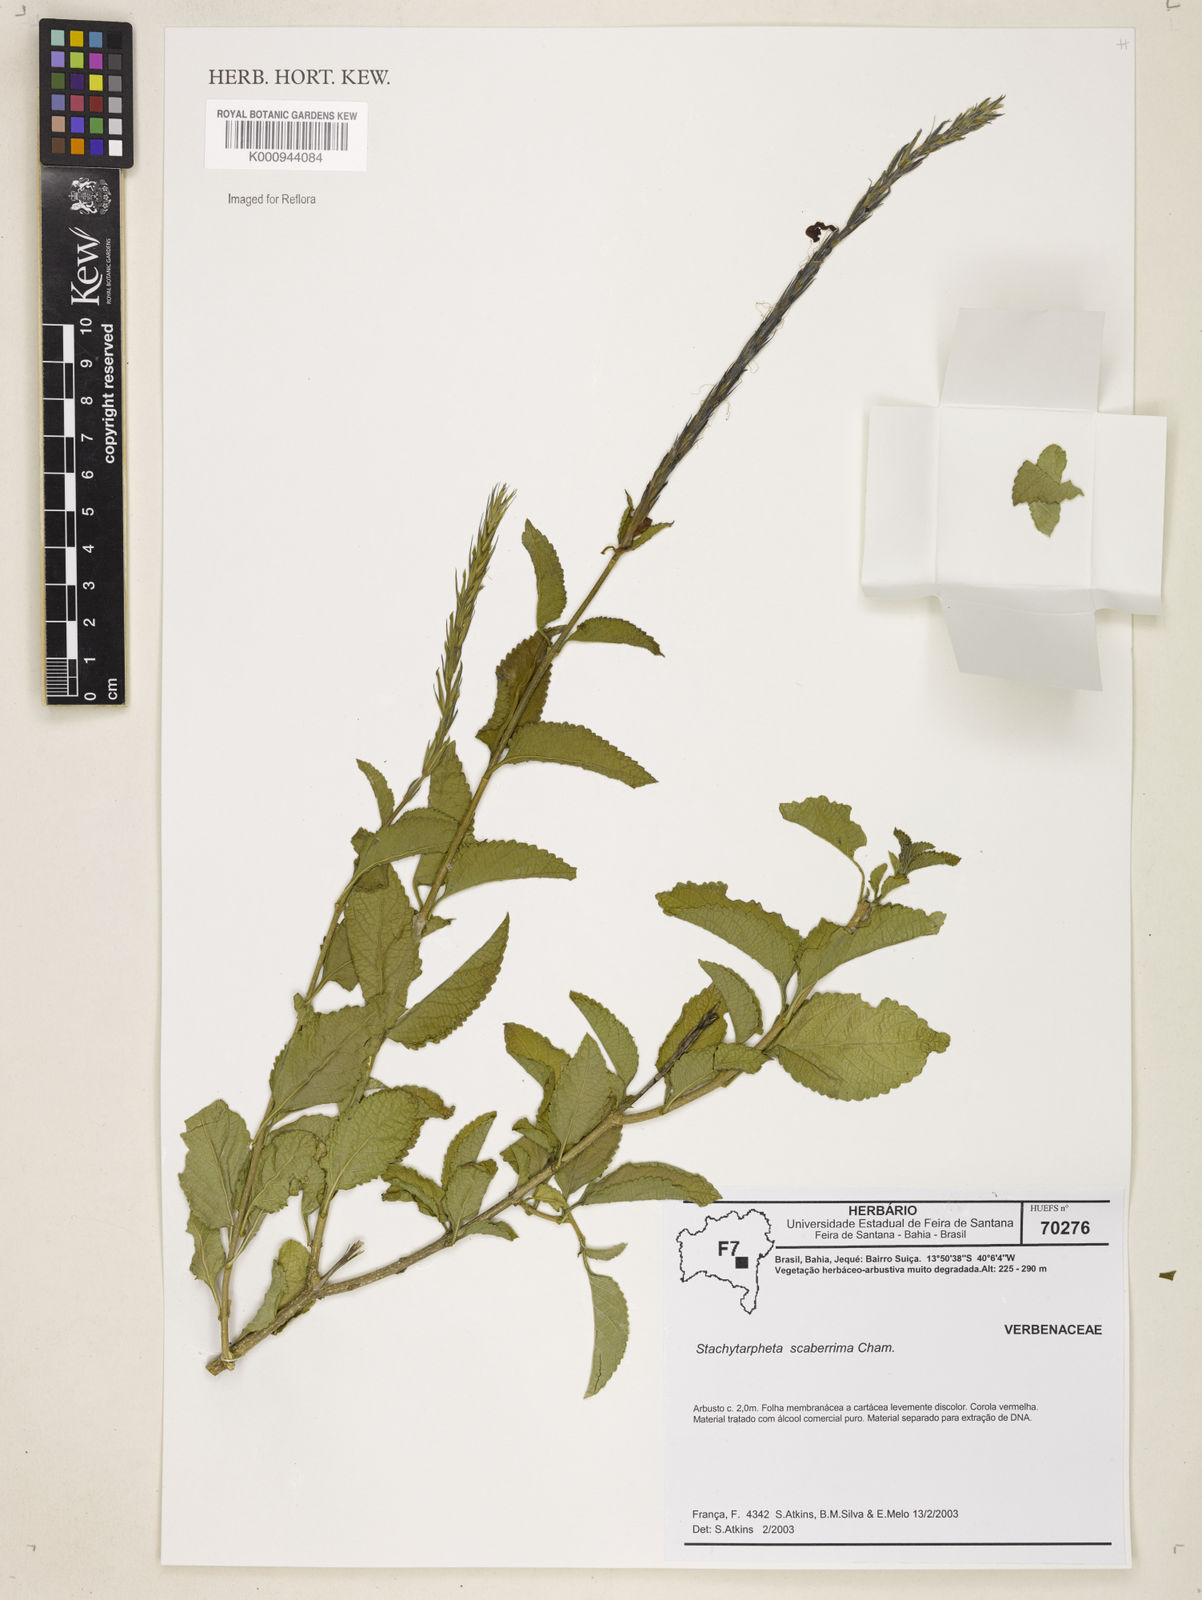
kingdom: Plantae
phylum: Tracheophyta
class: Magnoliopsida
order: Lamiales
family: Verbenaceae
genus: Stachytarpheta
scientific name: Stachytarpheta scaberrima
